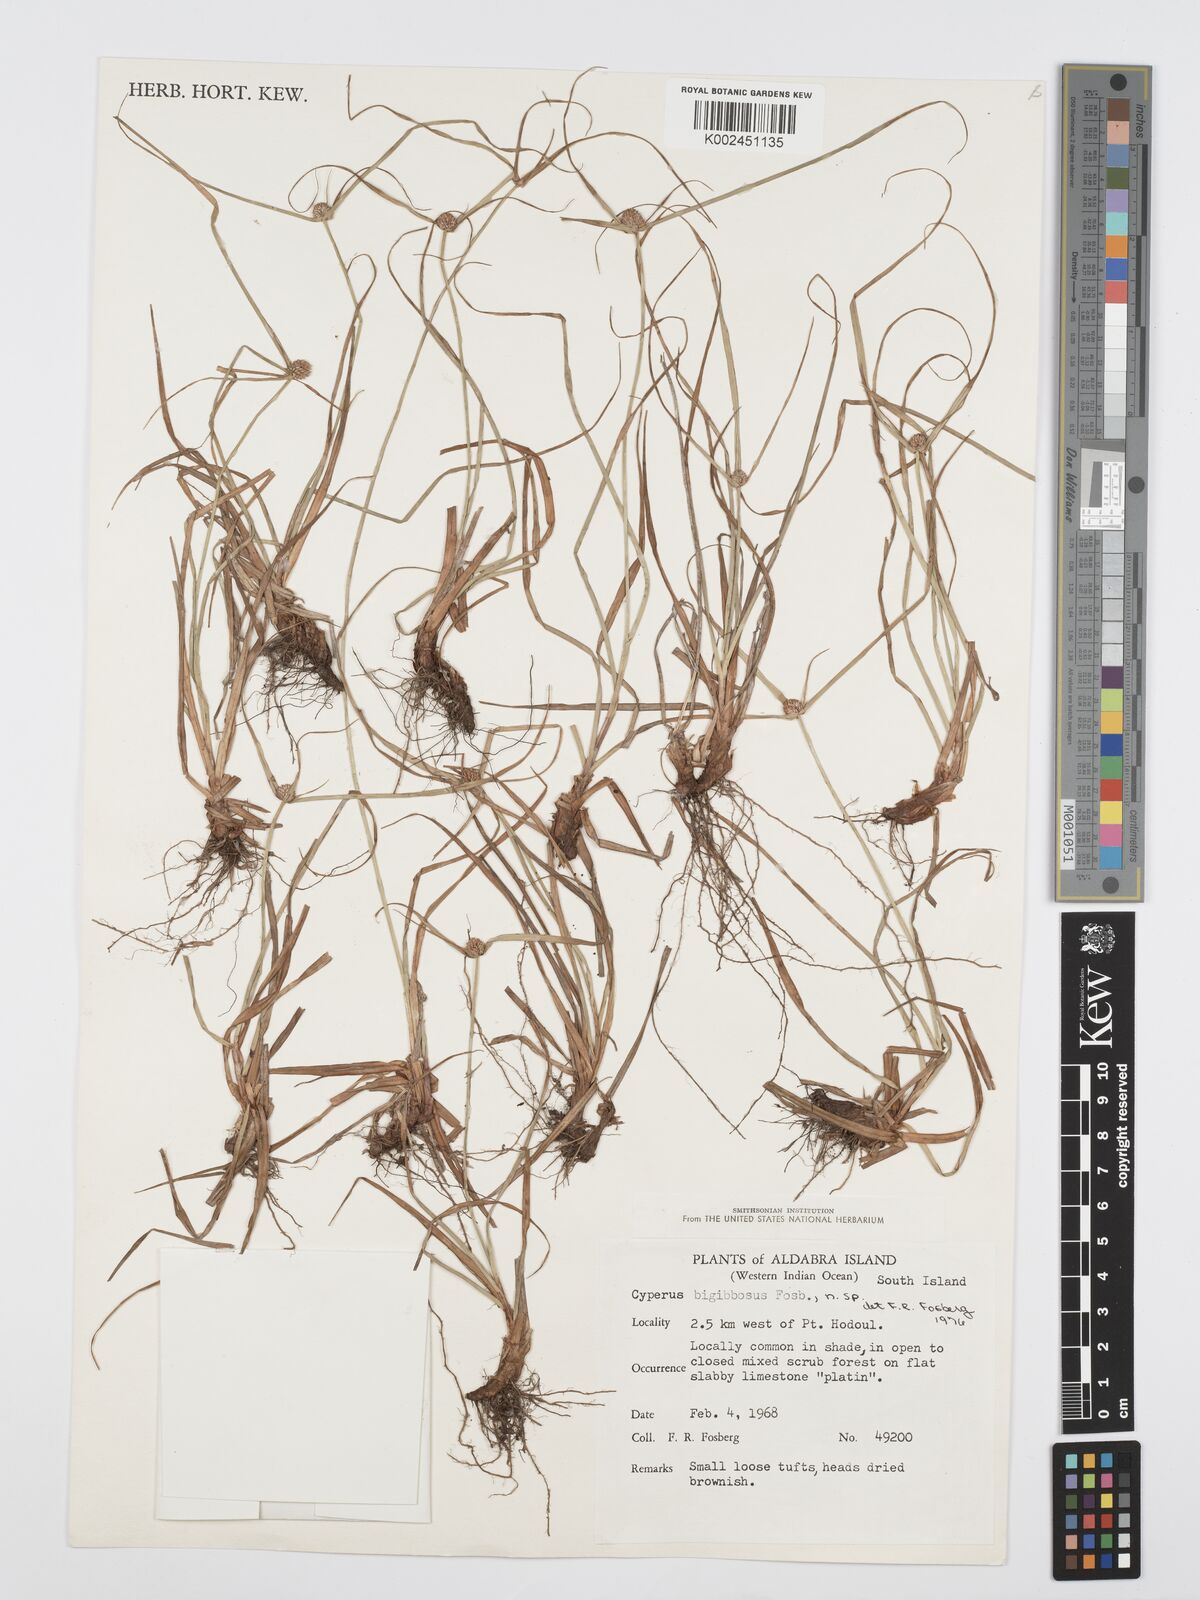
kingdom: Plantae
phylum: Tracheophyta
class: Liliopsida
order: Poales
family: Cyperaceae
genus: Cyperus
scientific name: Cyperus bigibbosa
